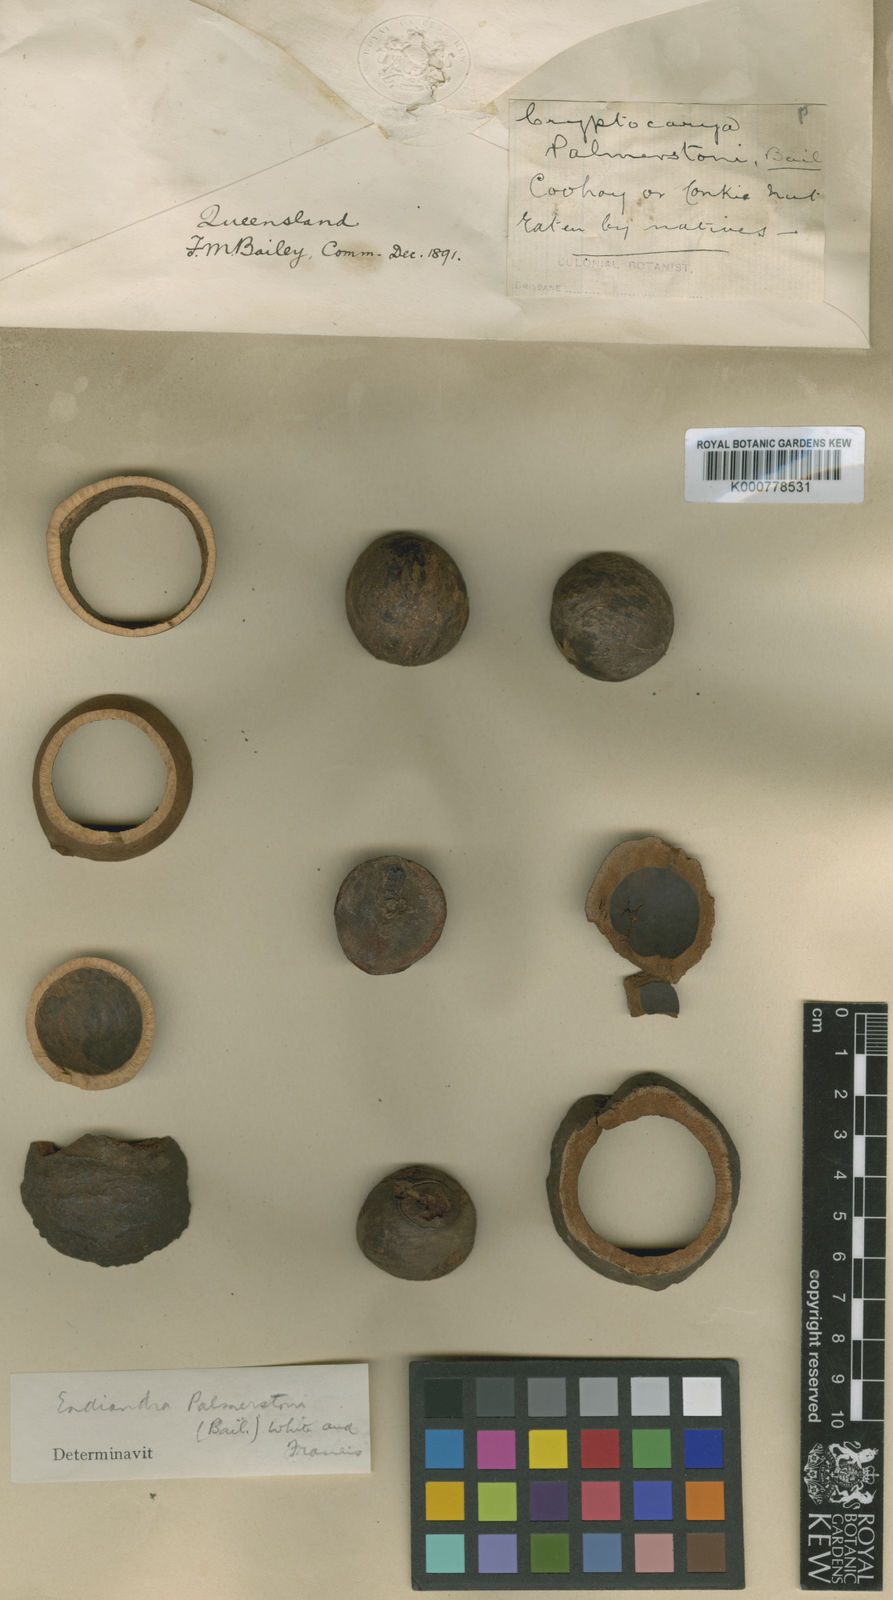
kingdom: Plantae
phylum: Tracheophyta
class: Magnoliopsida
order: Laurales
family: Lauraceae
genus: Endiandra
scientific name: Endiandra palmerstonii
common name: Australian-walnut
